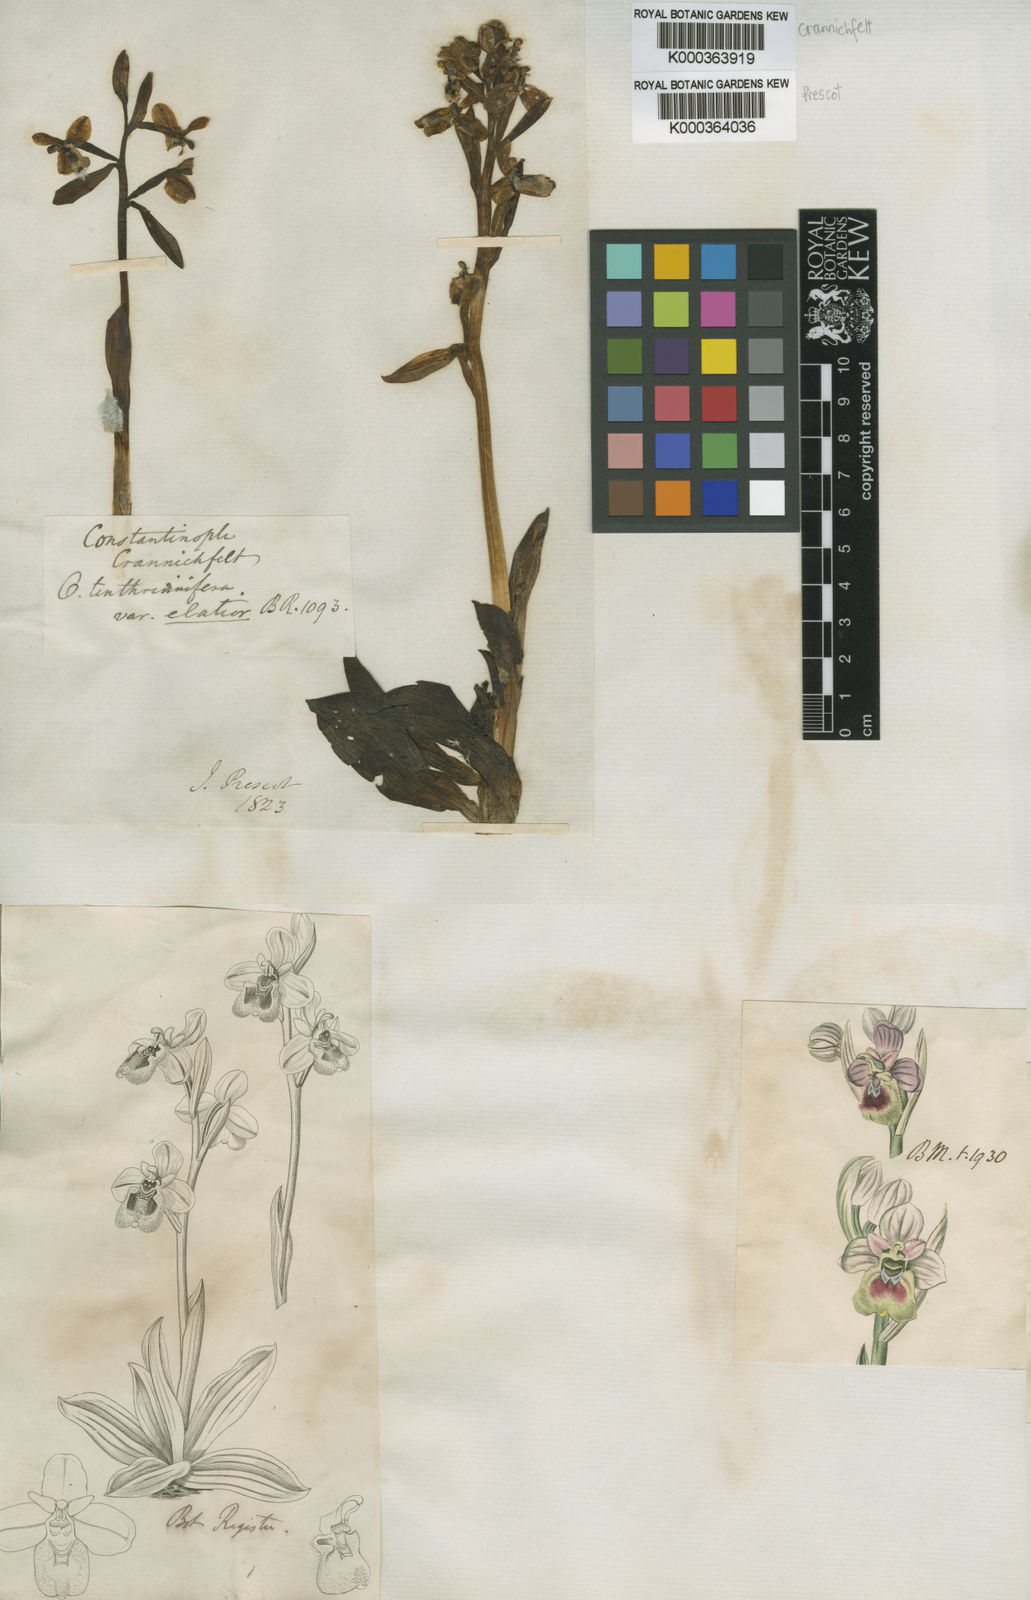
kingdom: Plantae
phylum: Tracheophyta
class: Liliopsida
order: Asparagales
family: Orchidaceae
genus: Ophrys
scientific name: Ophrys tenthredinifera
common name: Sawfly orchid
